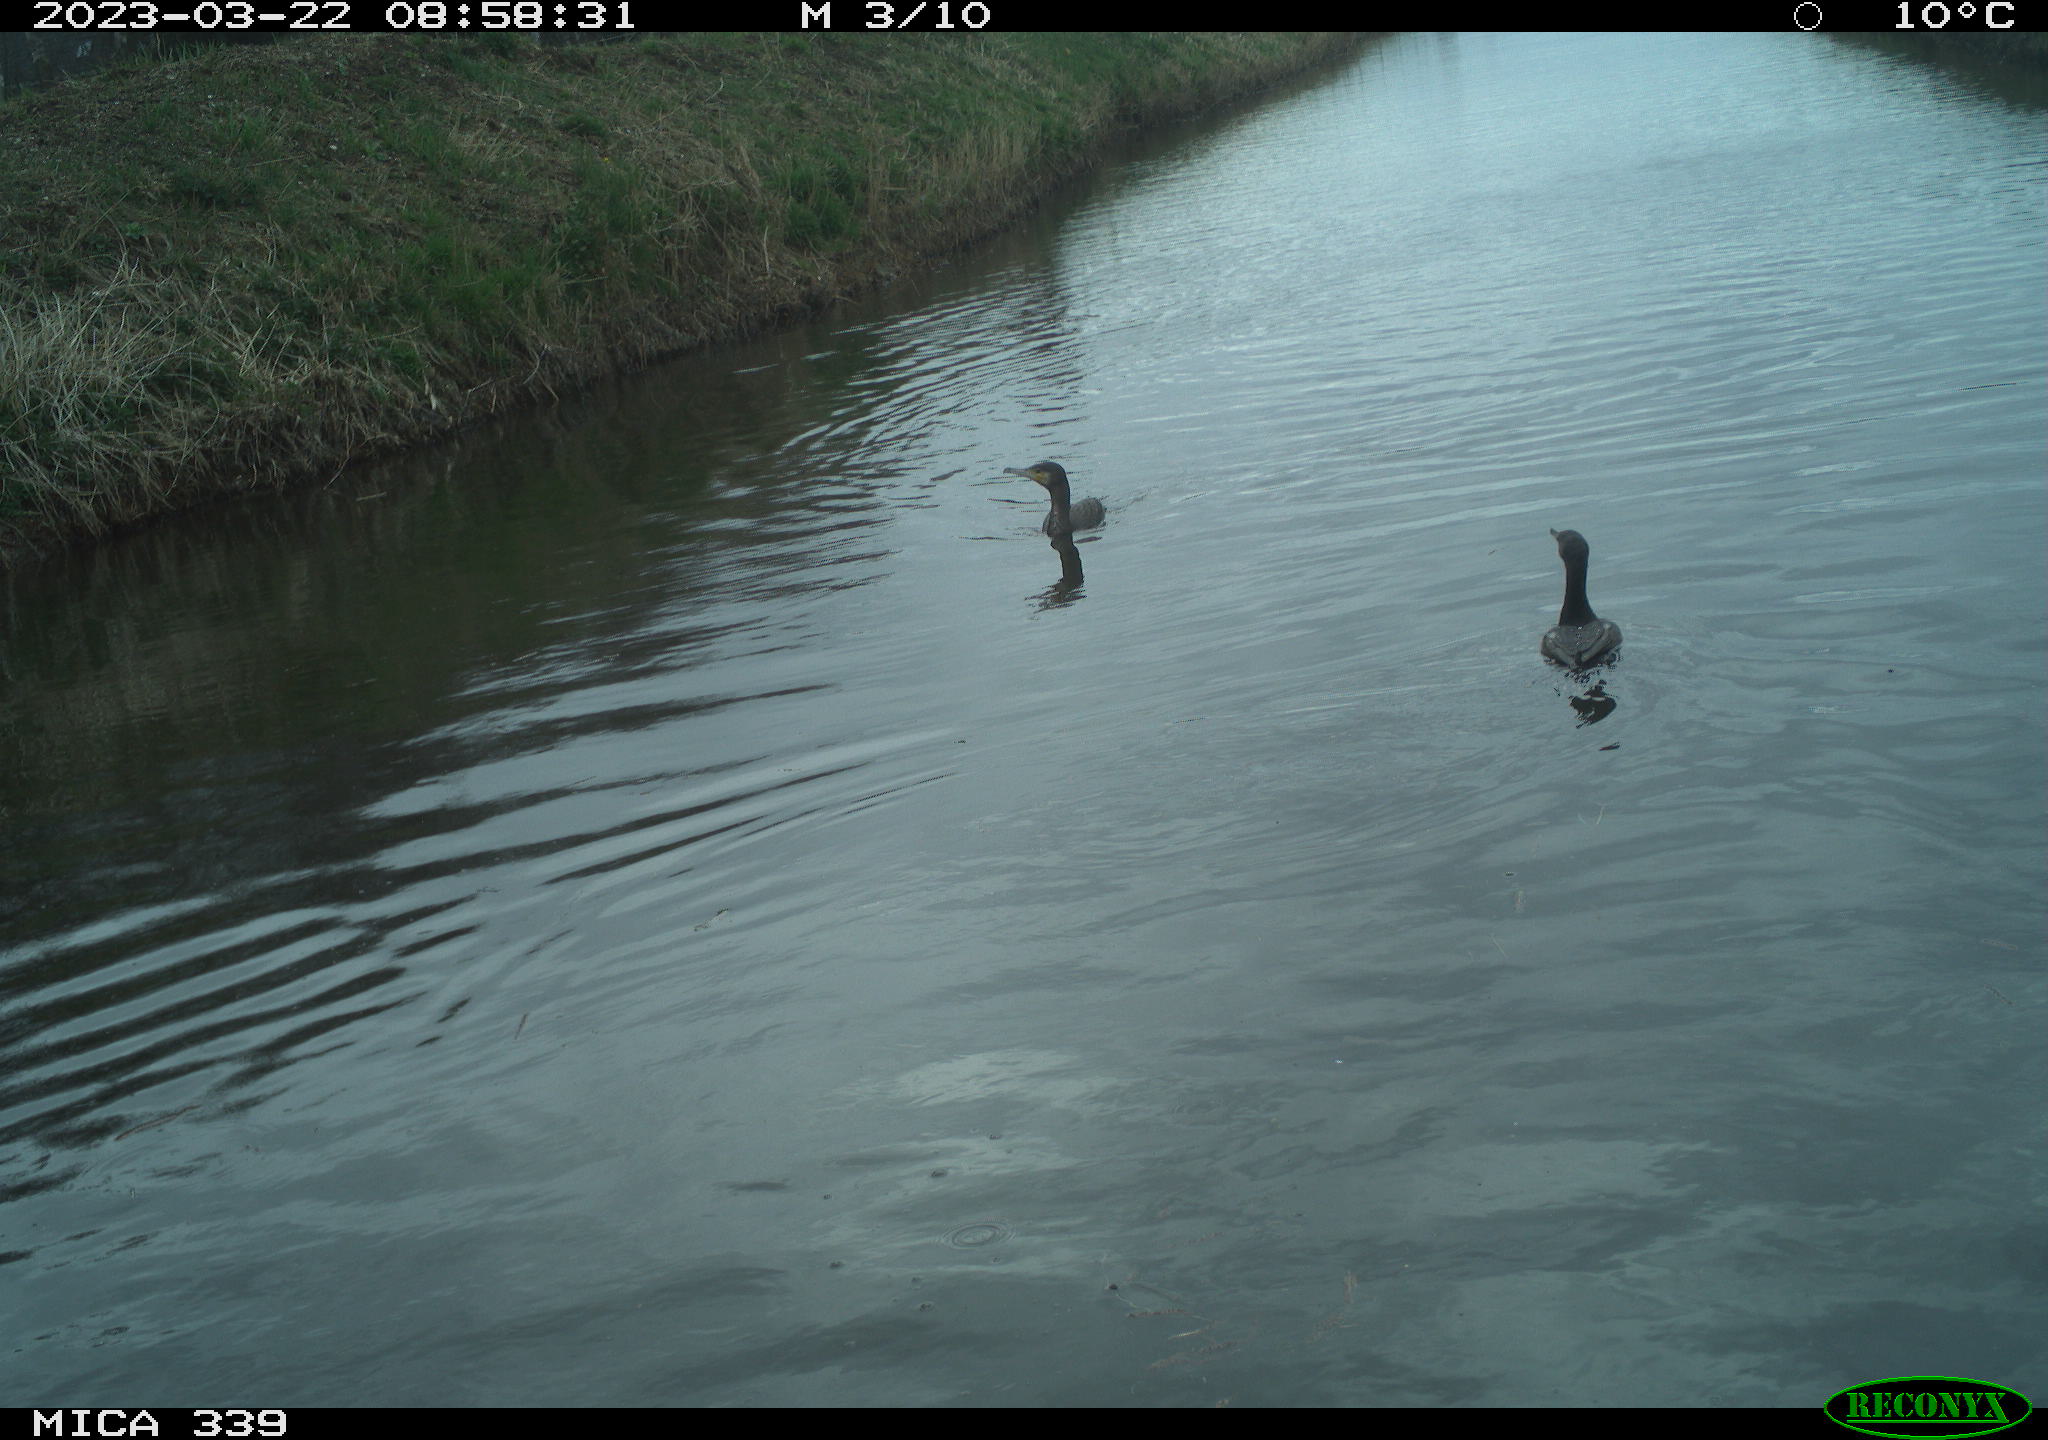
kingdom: Animalia
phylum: Chordata
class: Aves
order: Anseriformes
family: Anatidae
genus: Anas
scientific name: Anas
